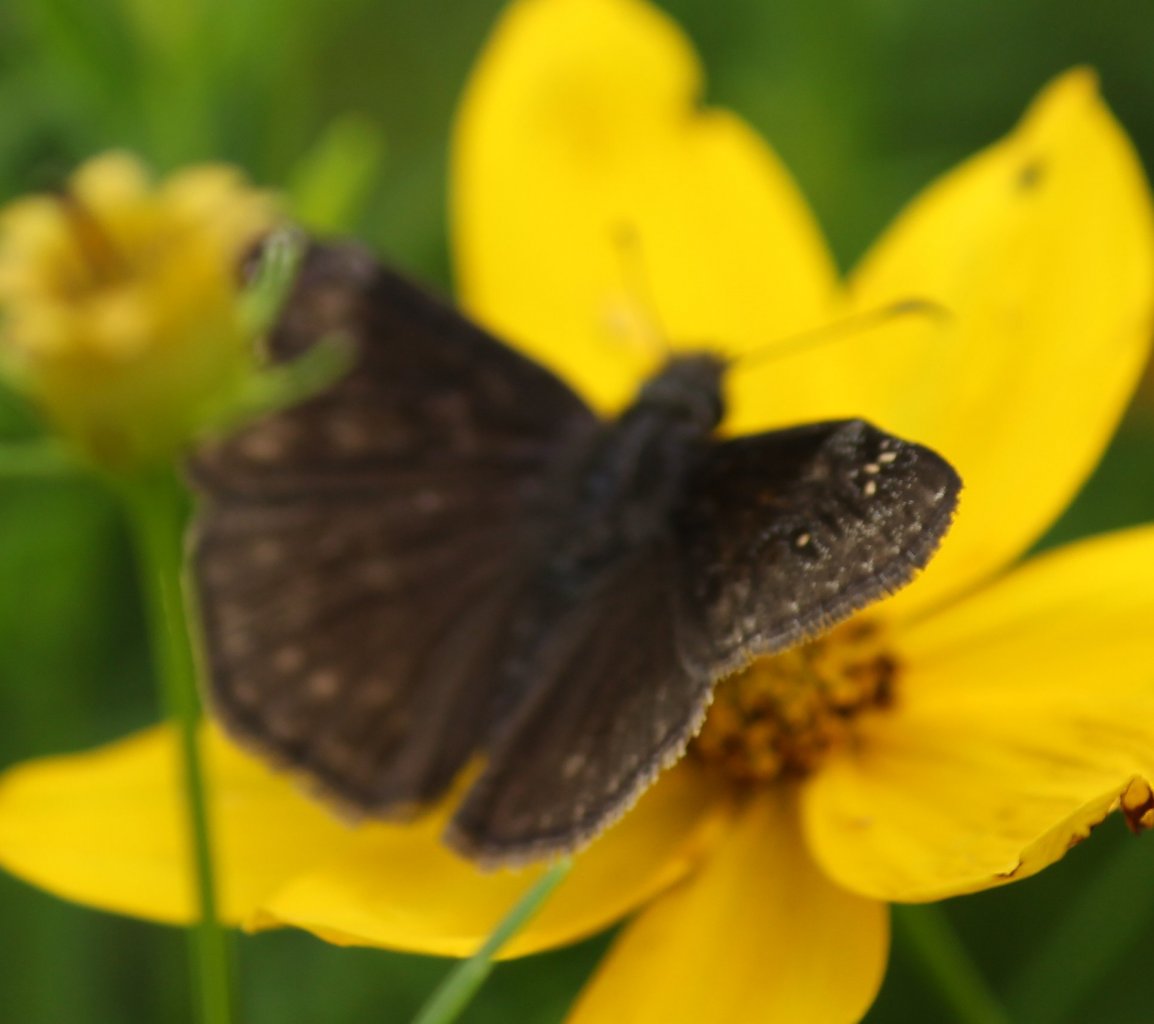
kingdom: Animalia
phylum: Arthropoda
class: Insecta
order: Lepidoptera
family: Hesperiidae
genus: Gesta
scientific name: Gesta
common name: Wild Indigo Duskywing
